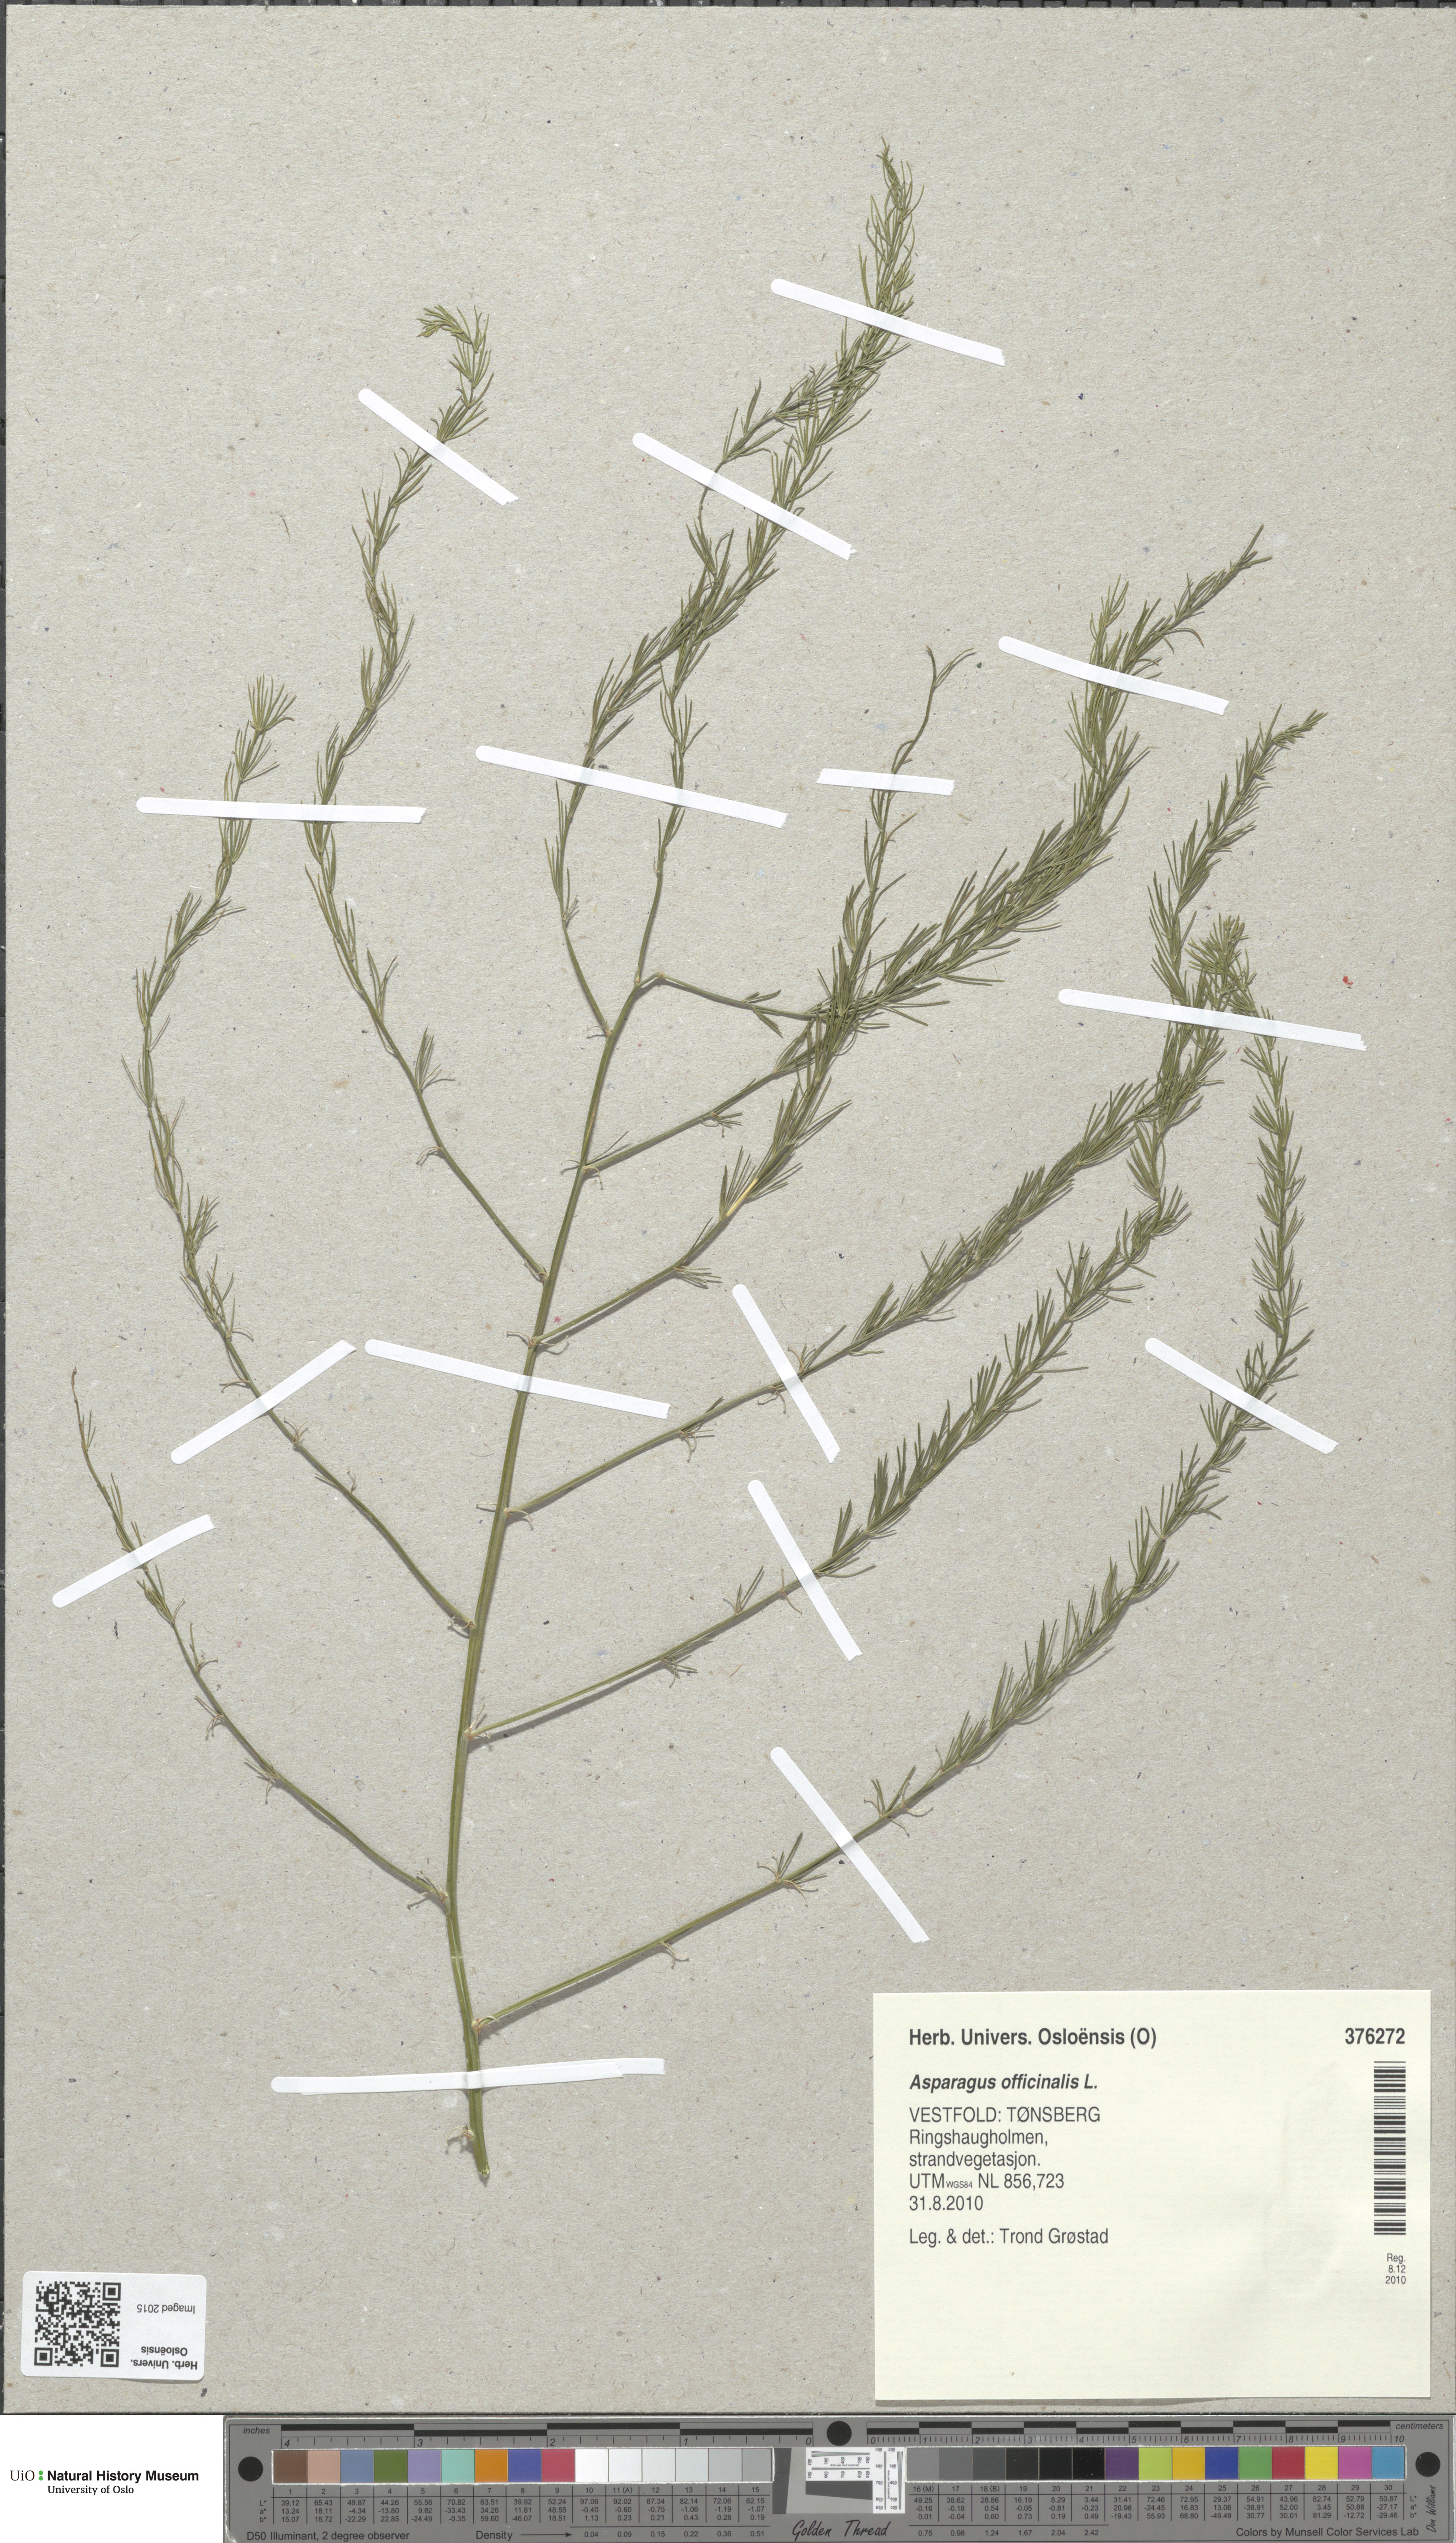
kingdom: Plantae
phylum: Tracheophyta
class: Liliopsida
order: Asparagales
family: Asparagaceae
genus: Asparagus
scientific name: Asparagus officinalis
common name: Garden asparagus
